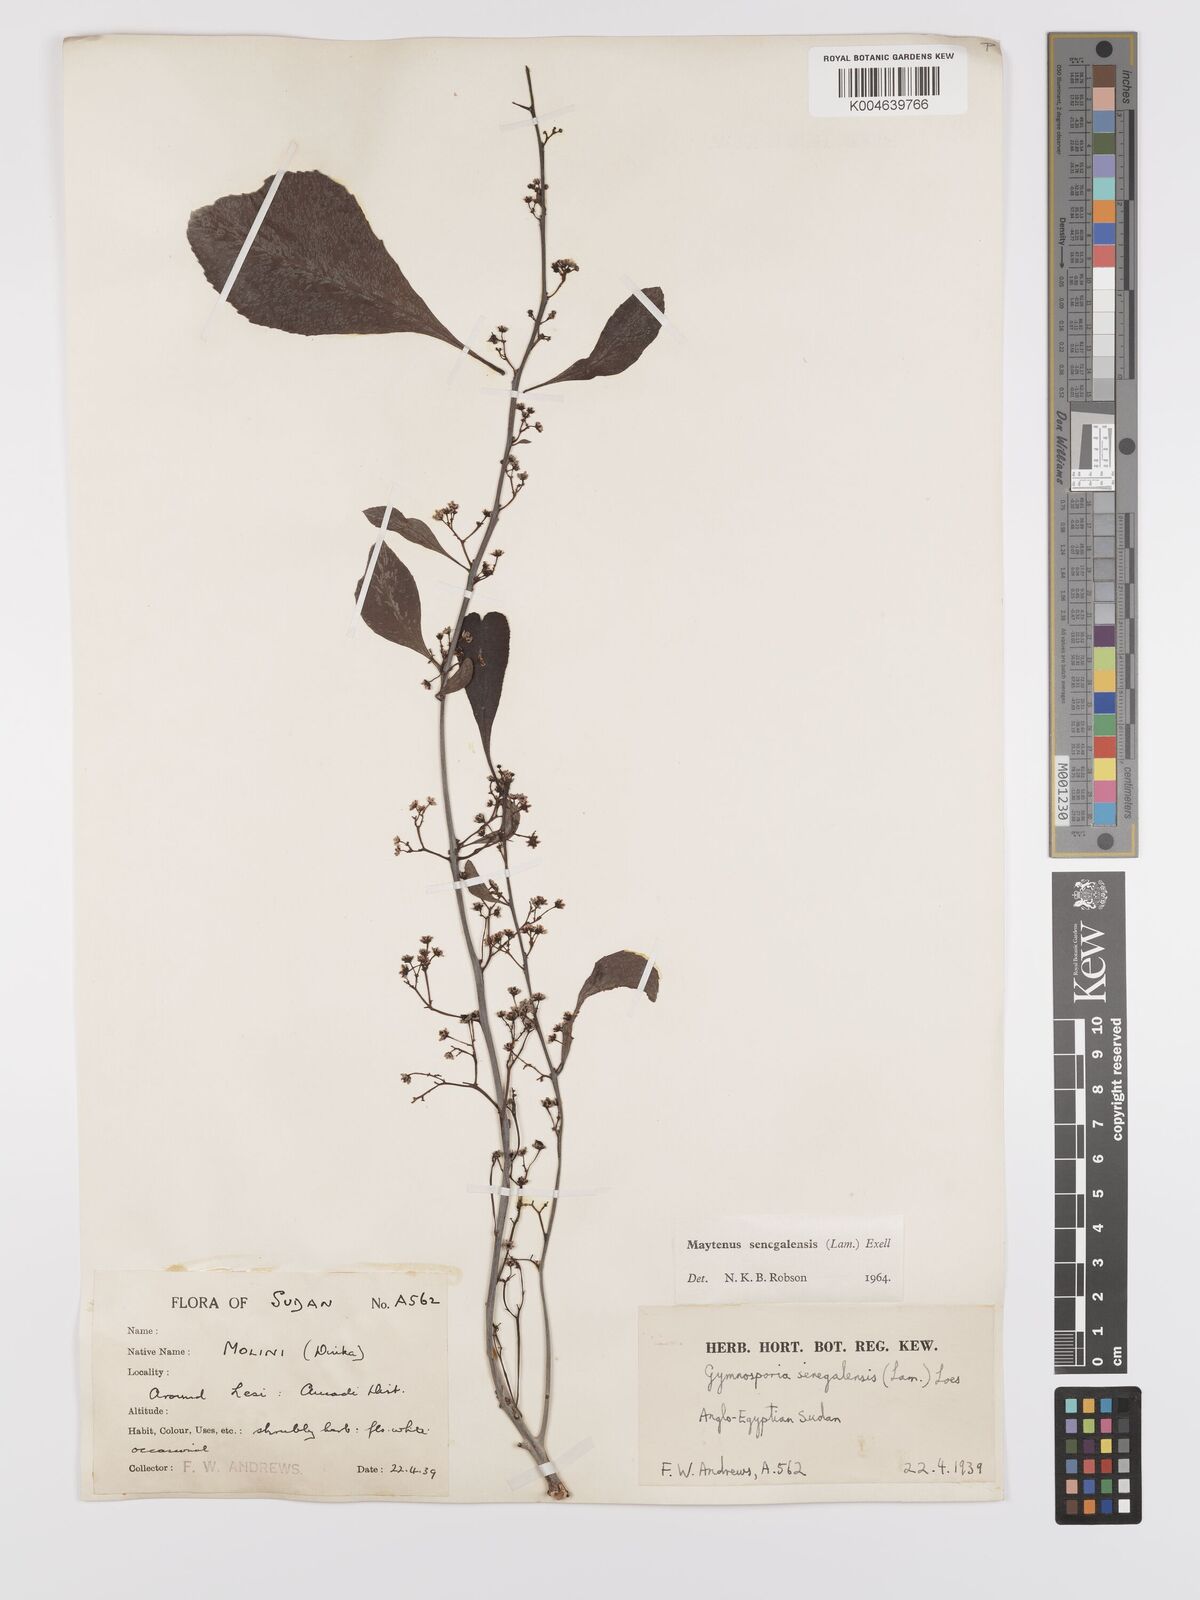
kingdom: Plantae
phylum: Tracheophyta
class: Magnoliopsida
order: Celastrales
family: Celastraceae
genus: Gymnosporia
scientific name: Gymnosporia senegalensis
